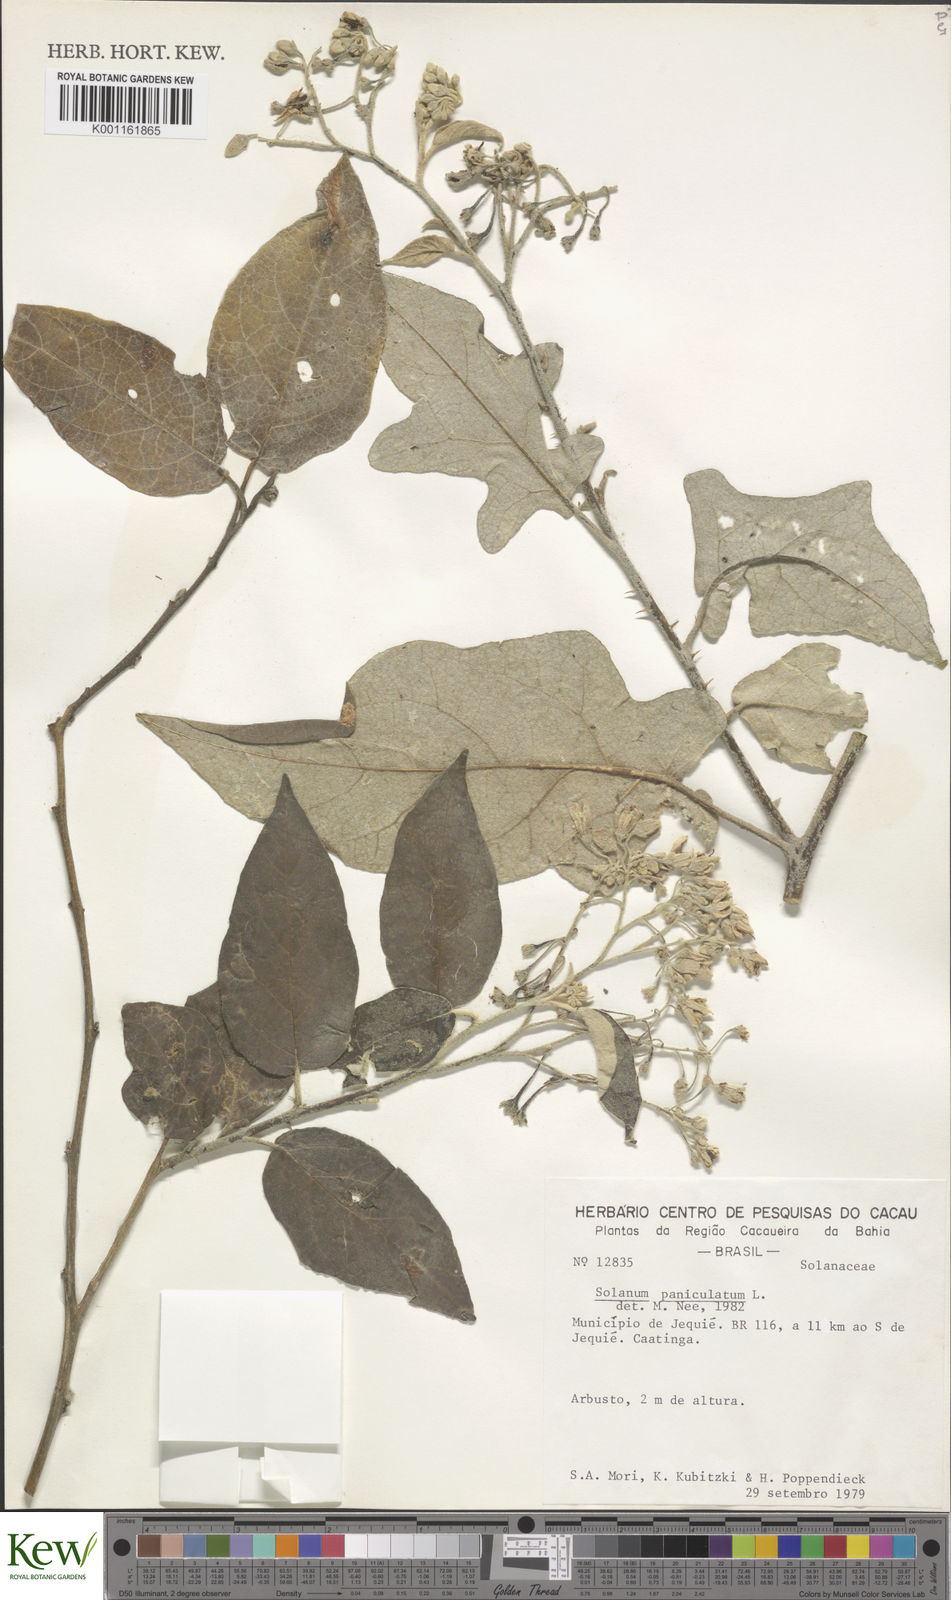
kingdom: Plantae
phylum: Tracheophyta
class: Magnoliopsida
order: Solanales
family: Solanaceae
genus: Solanum
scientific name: Solanum paniculatum
